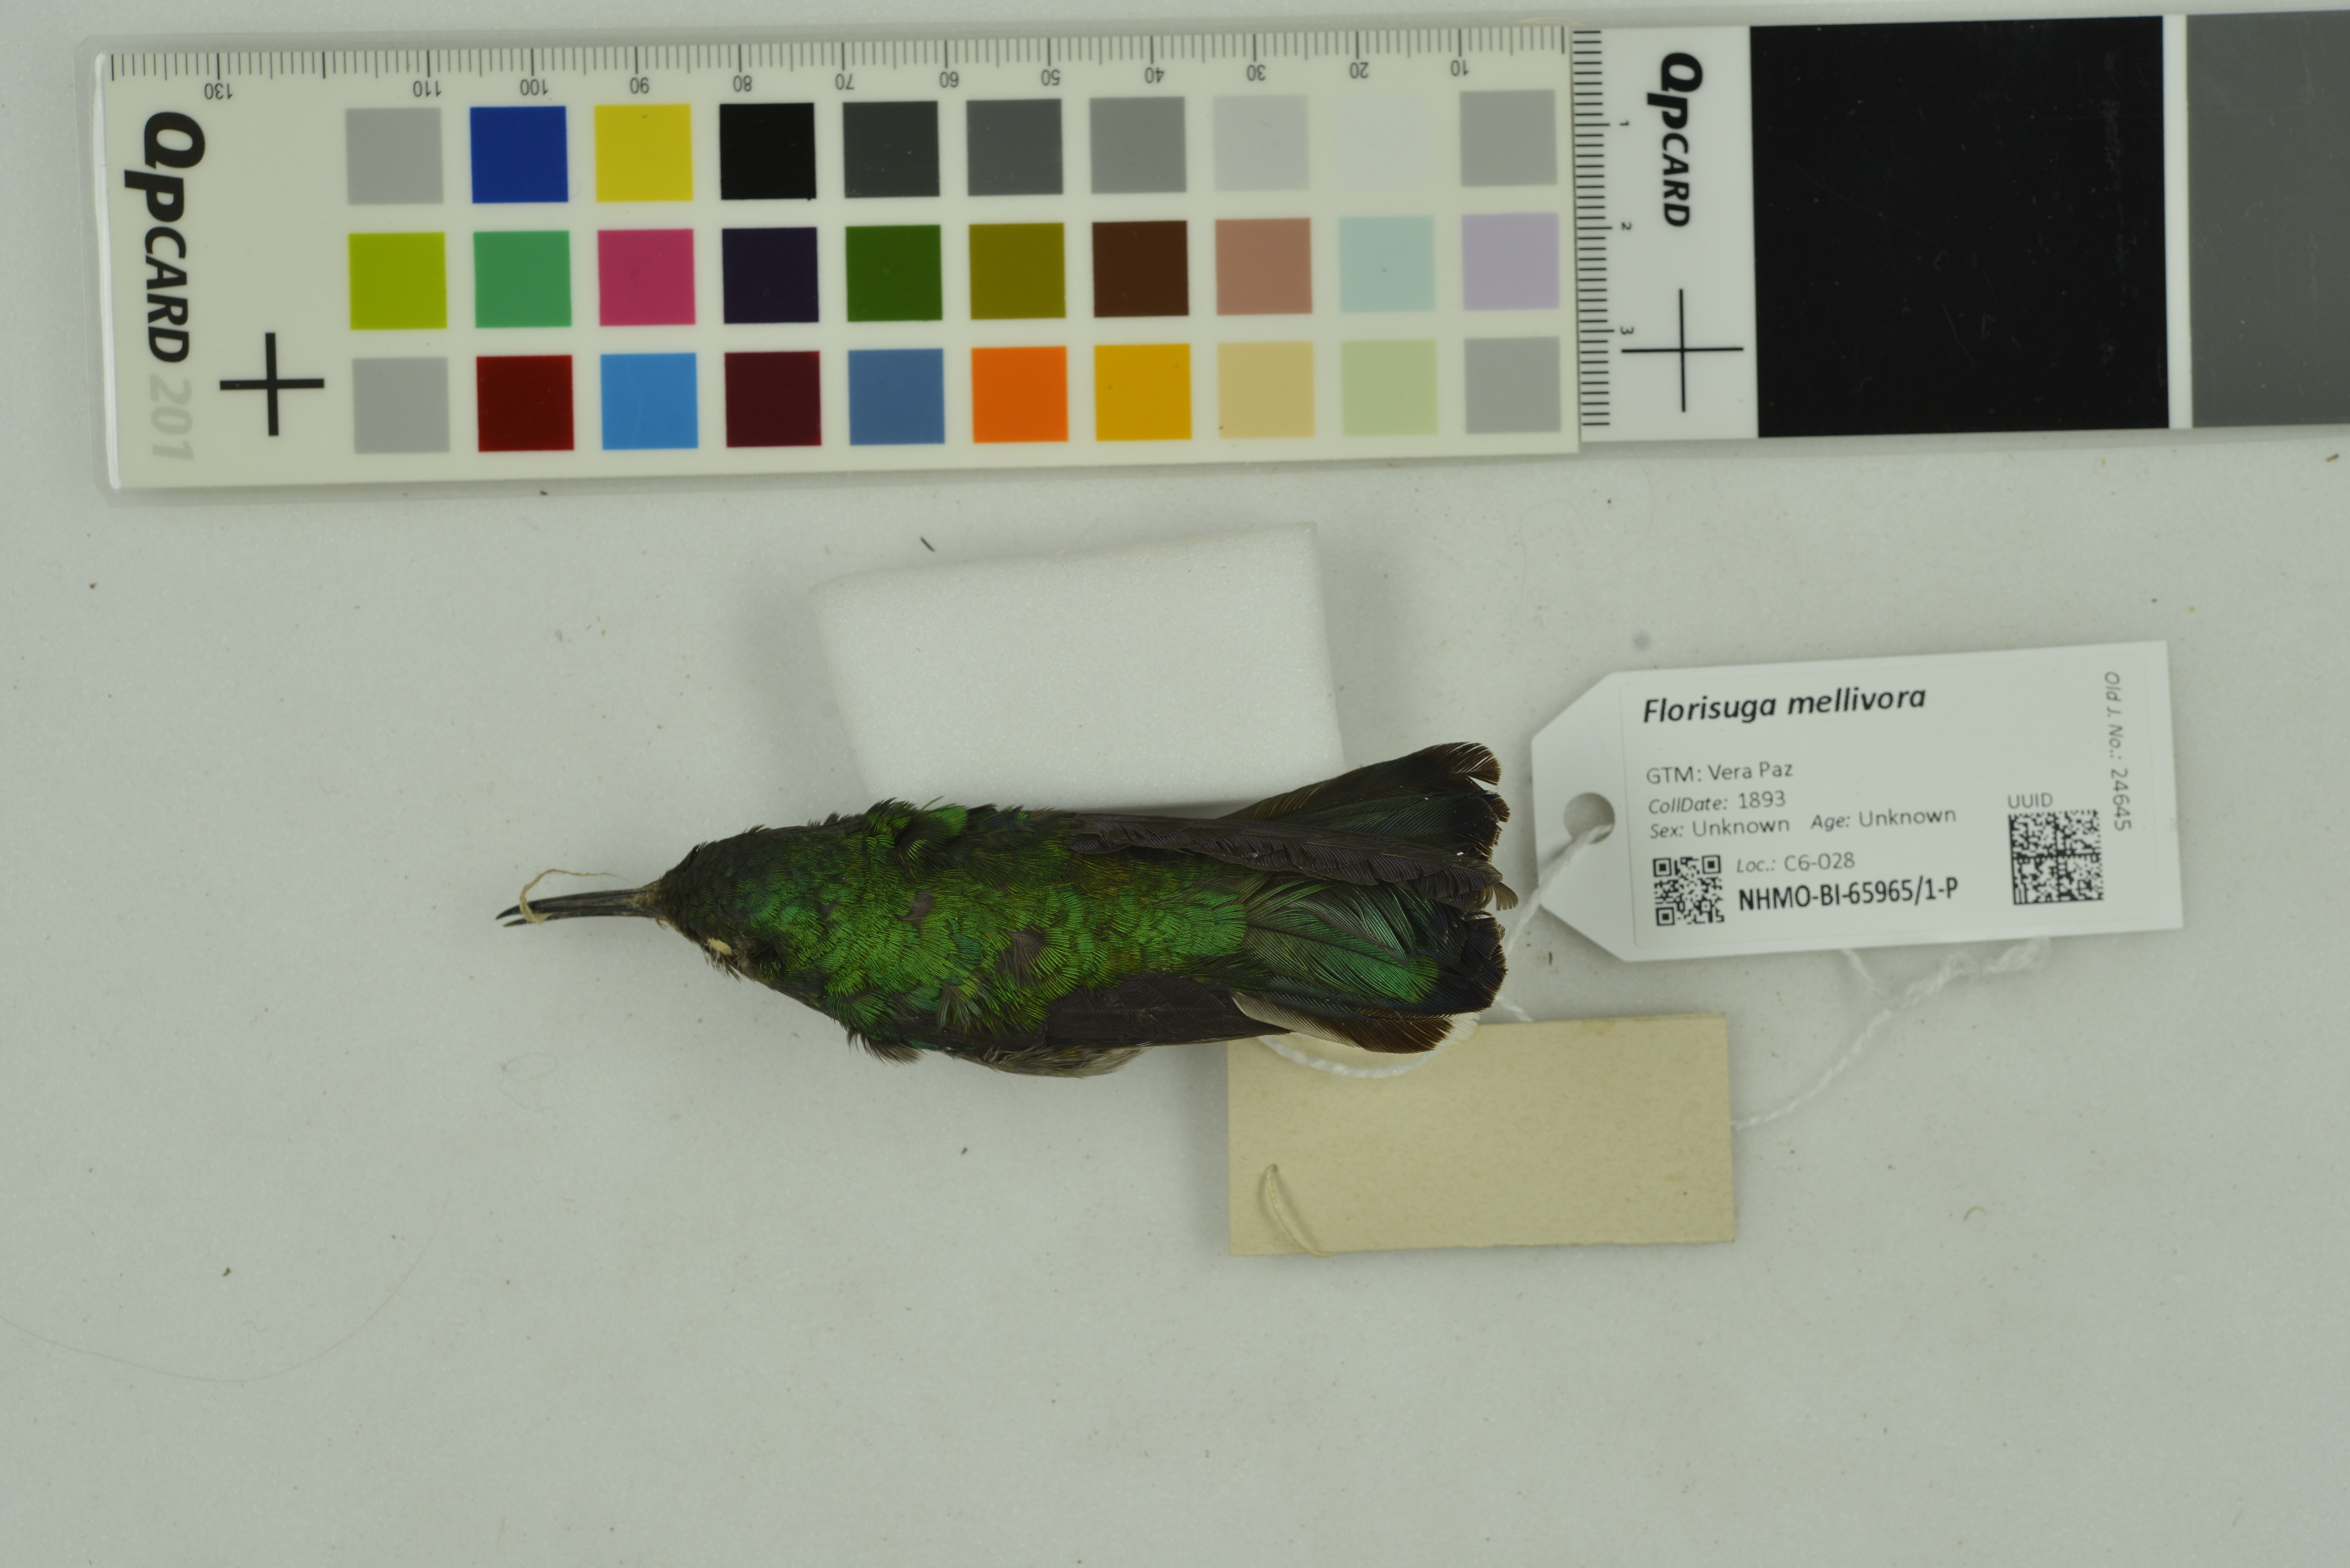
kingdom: Animalia
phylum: Chordata
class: Aves
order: Apodiformes
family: Trochilidae
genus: Florisuga
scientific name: Florisuga mellivora
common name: White-necked jacobin
